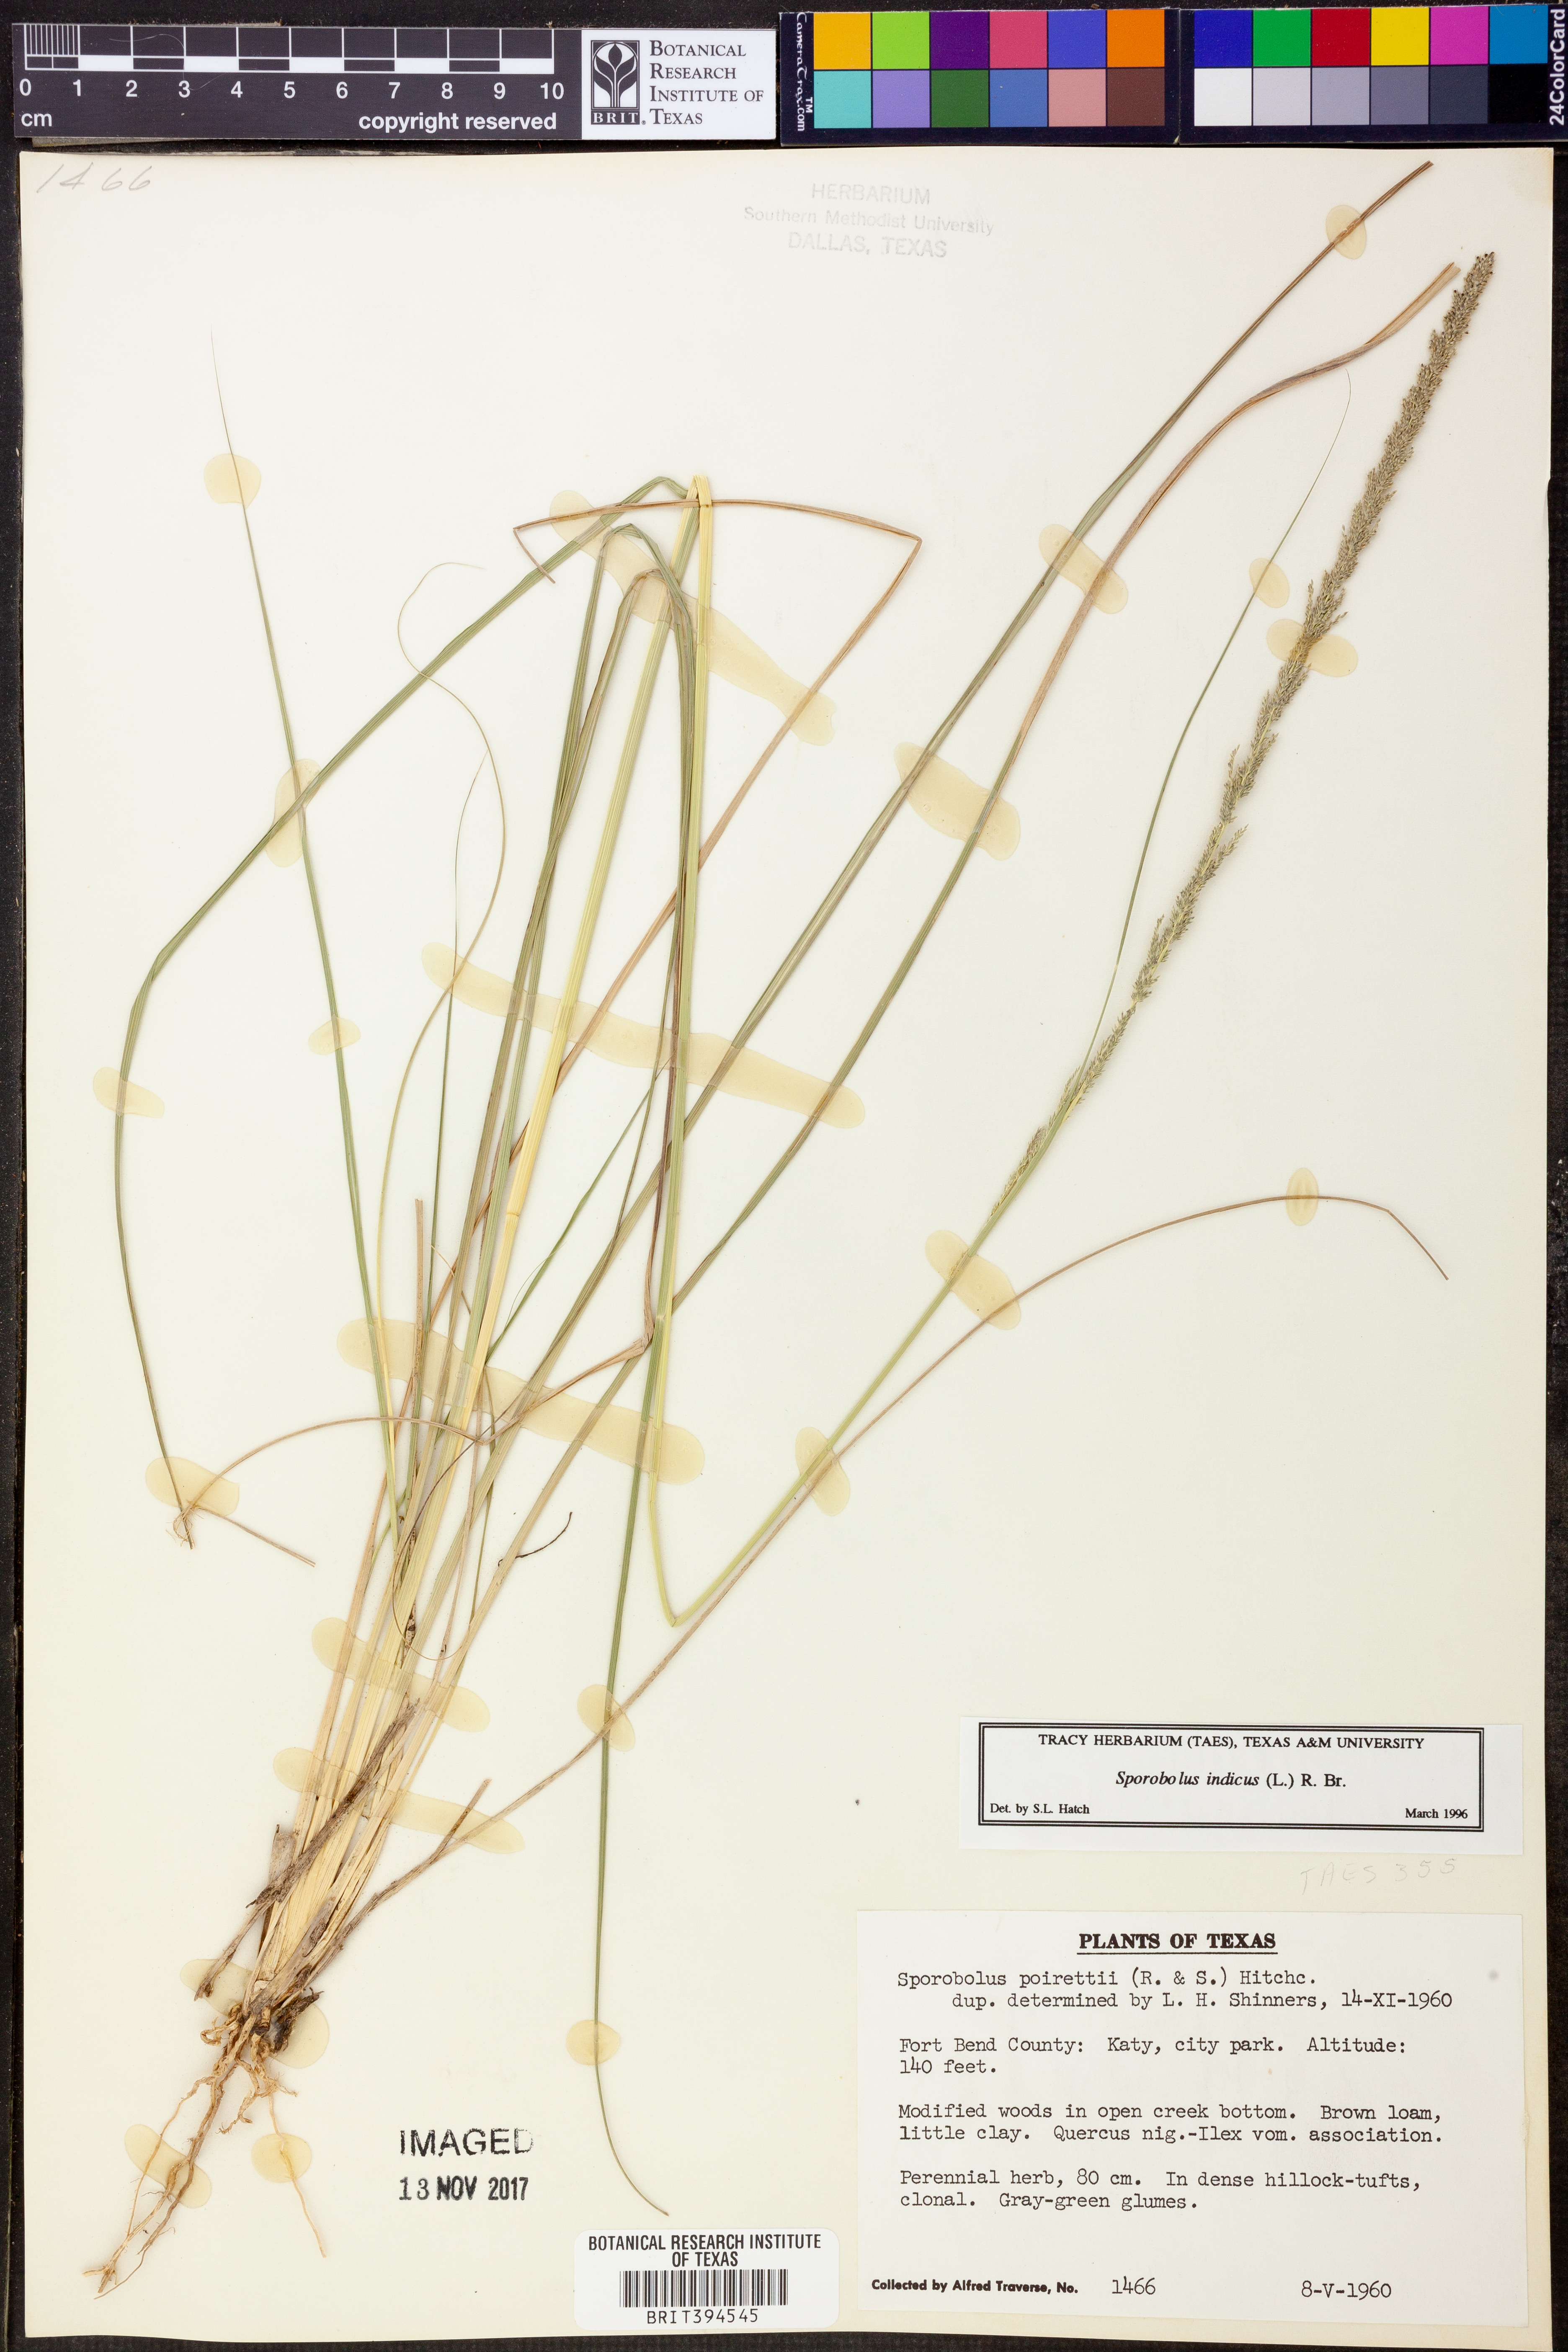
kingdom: Plantae
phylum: Tracheophyta
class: Liliopsida
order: Poales
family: Poaceae
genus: Sporobolus
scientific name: Sporobolus indicus
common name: Smut grass
